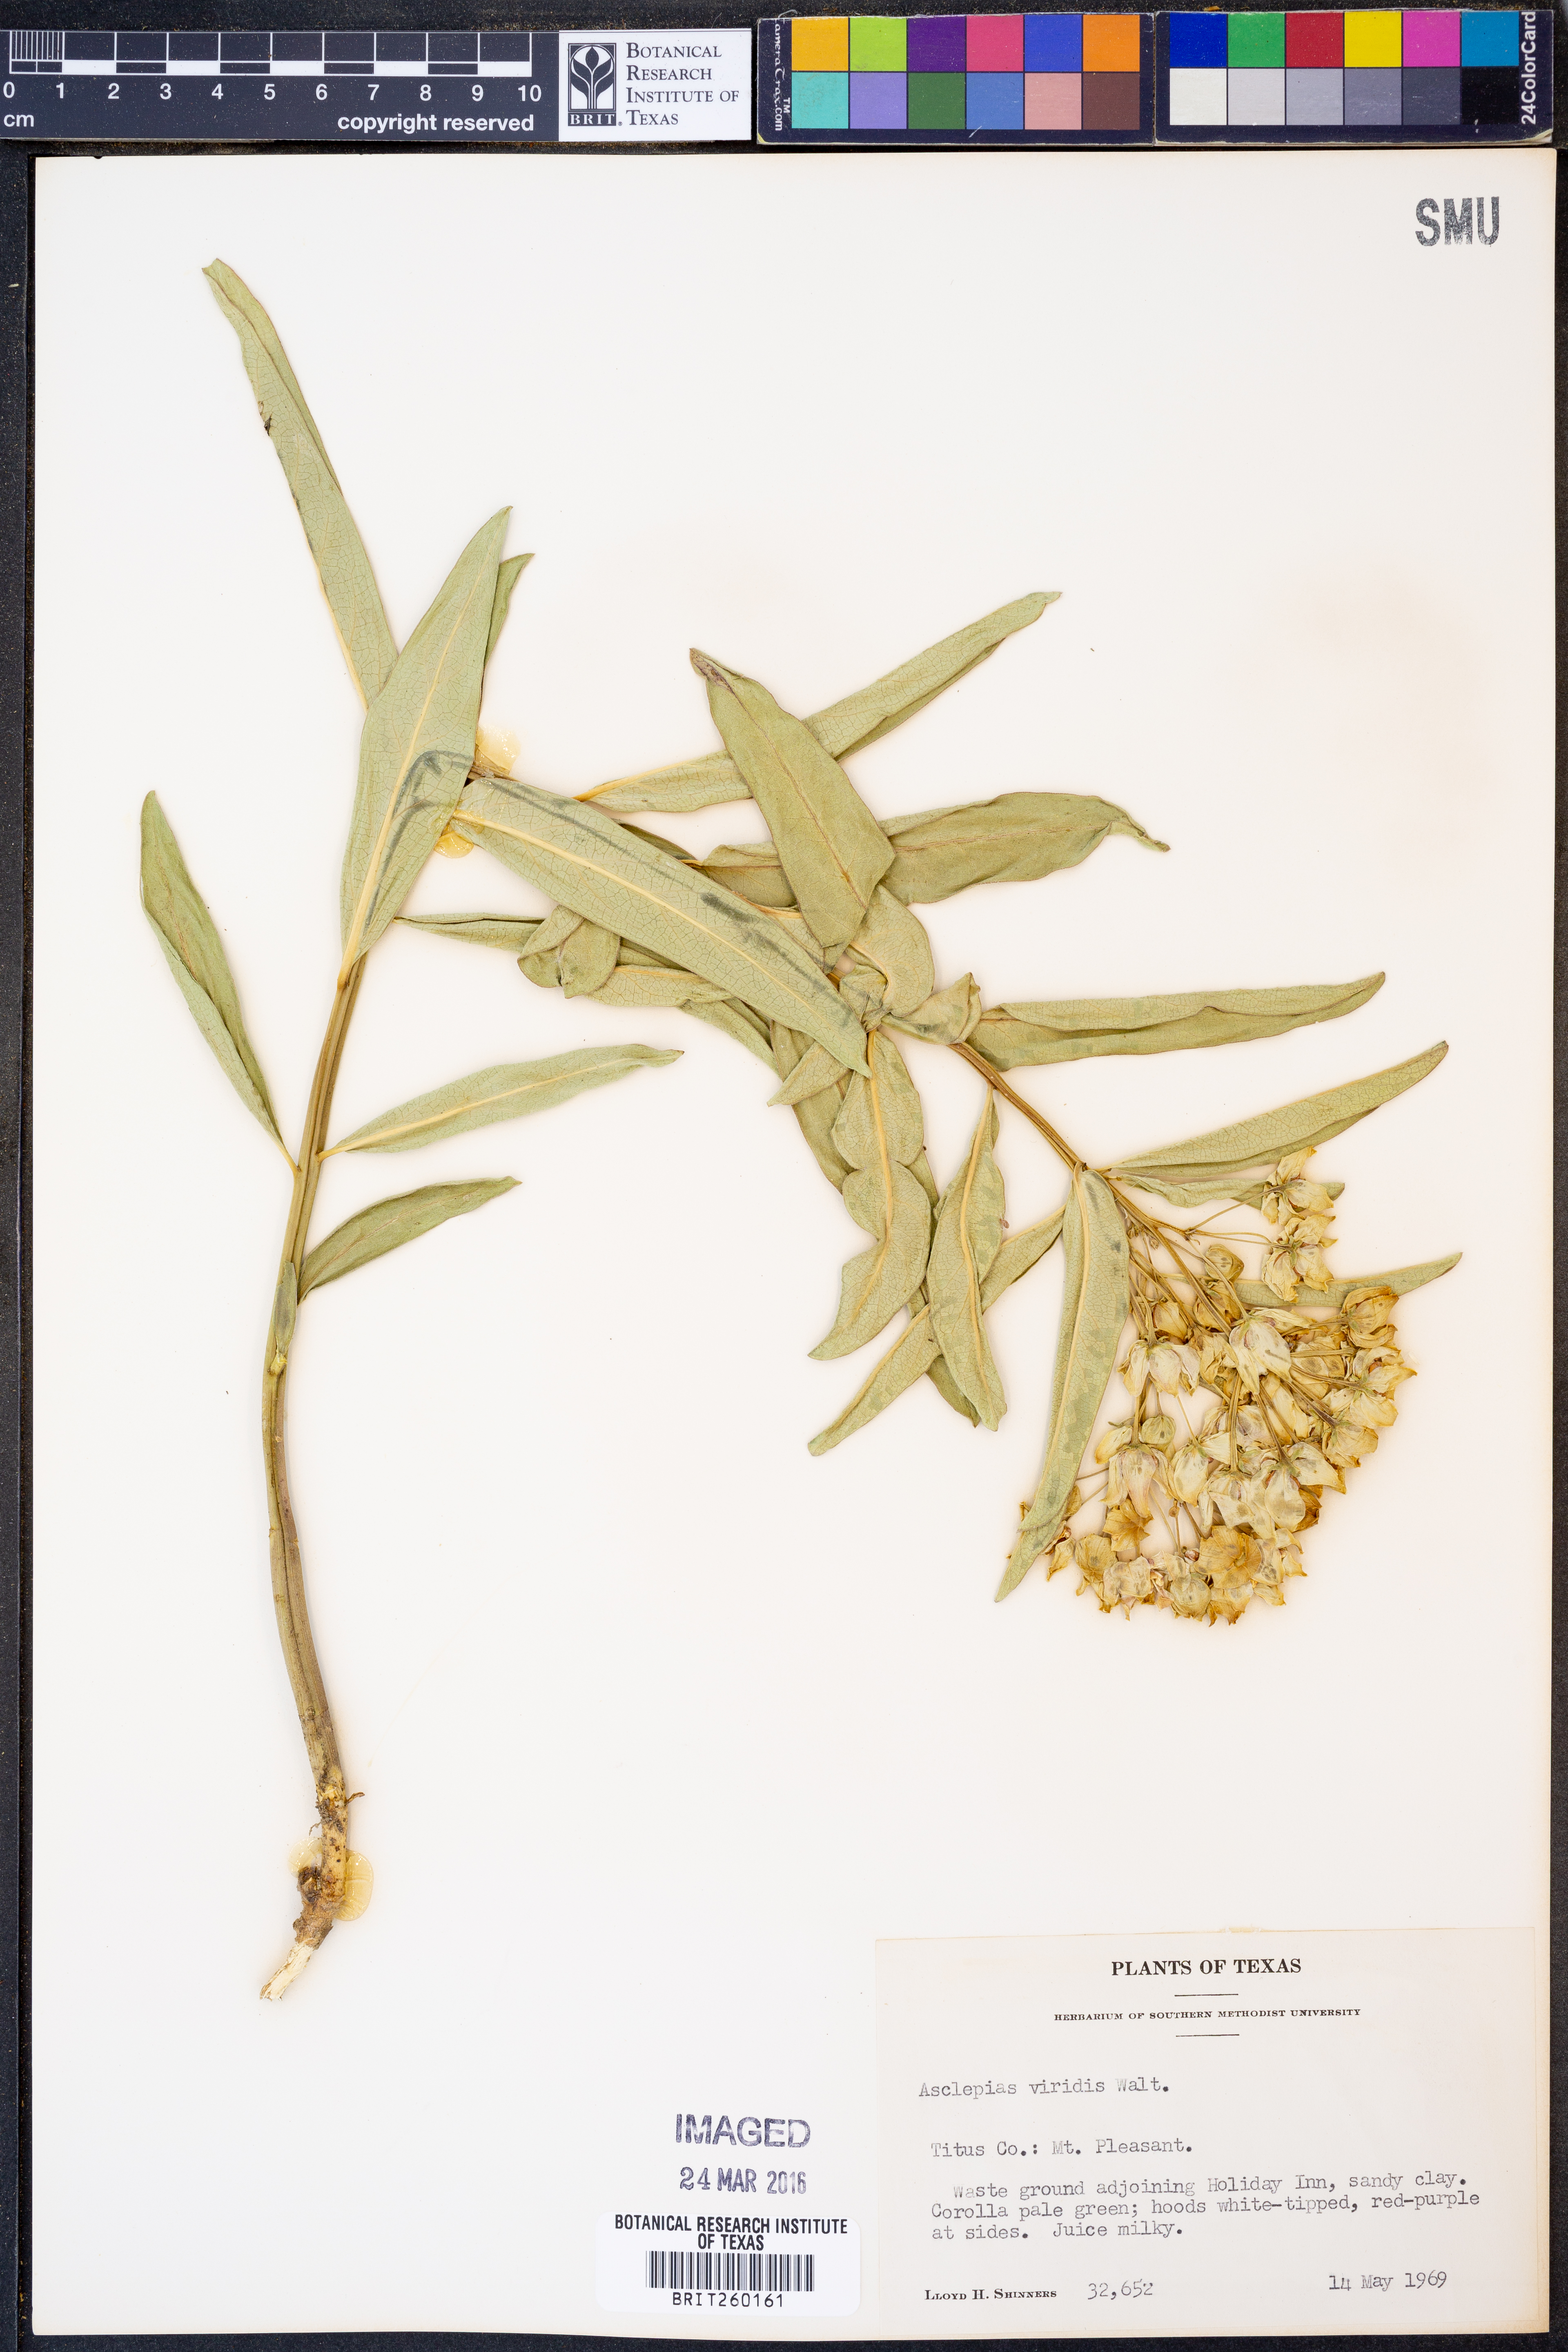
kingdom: Plantae
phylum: Tracheophyta
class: Magnoliopsida
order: Gentianales
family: Apocynaceae
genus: Asclepias
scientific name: Asclepias viridis
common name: Antelope-horns
